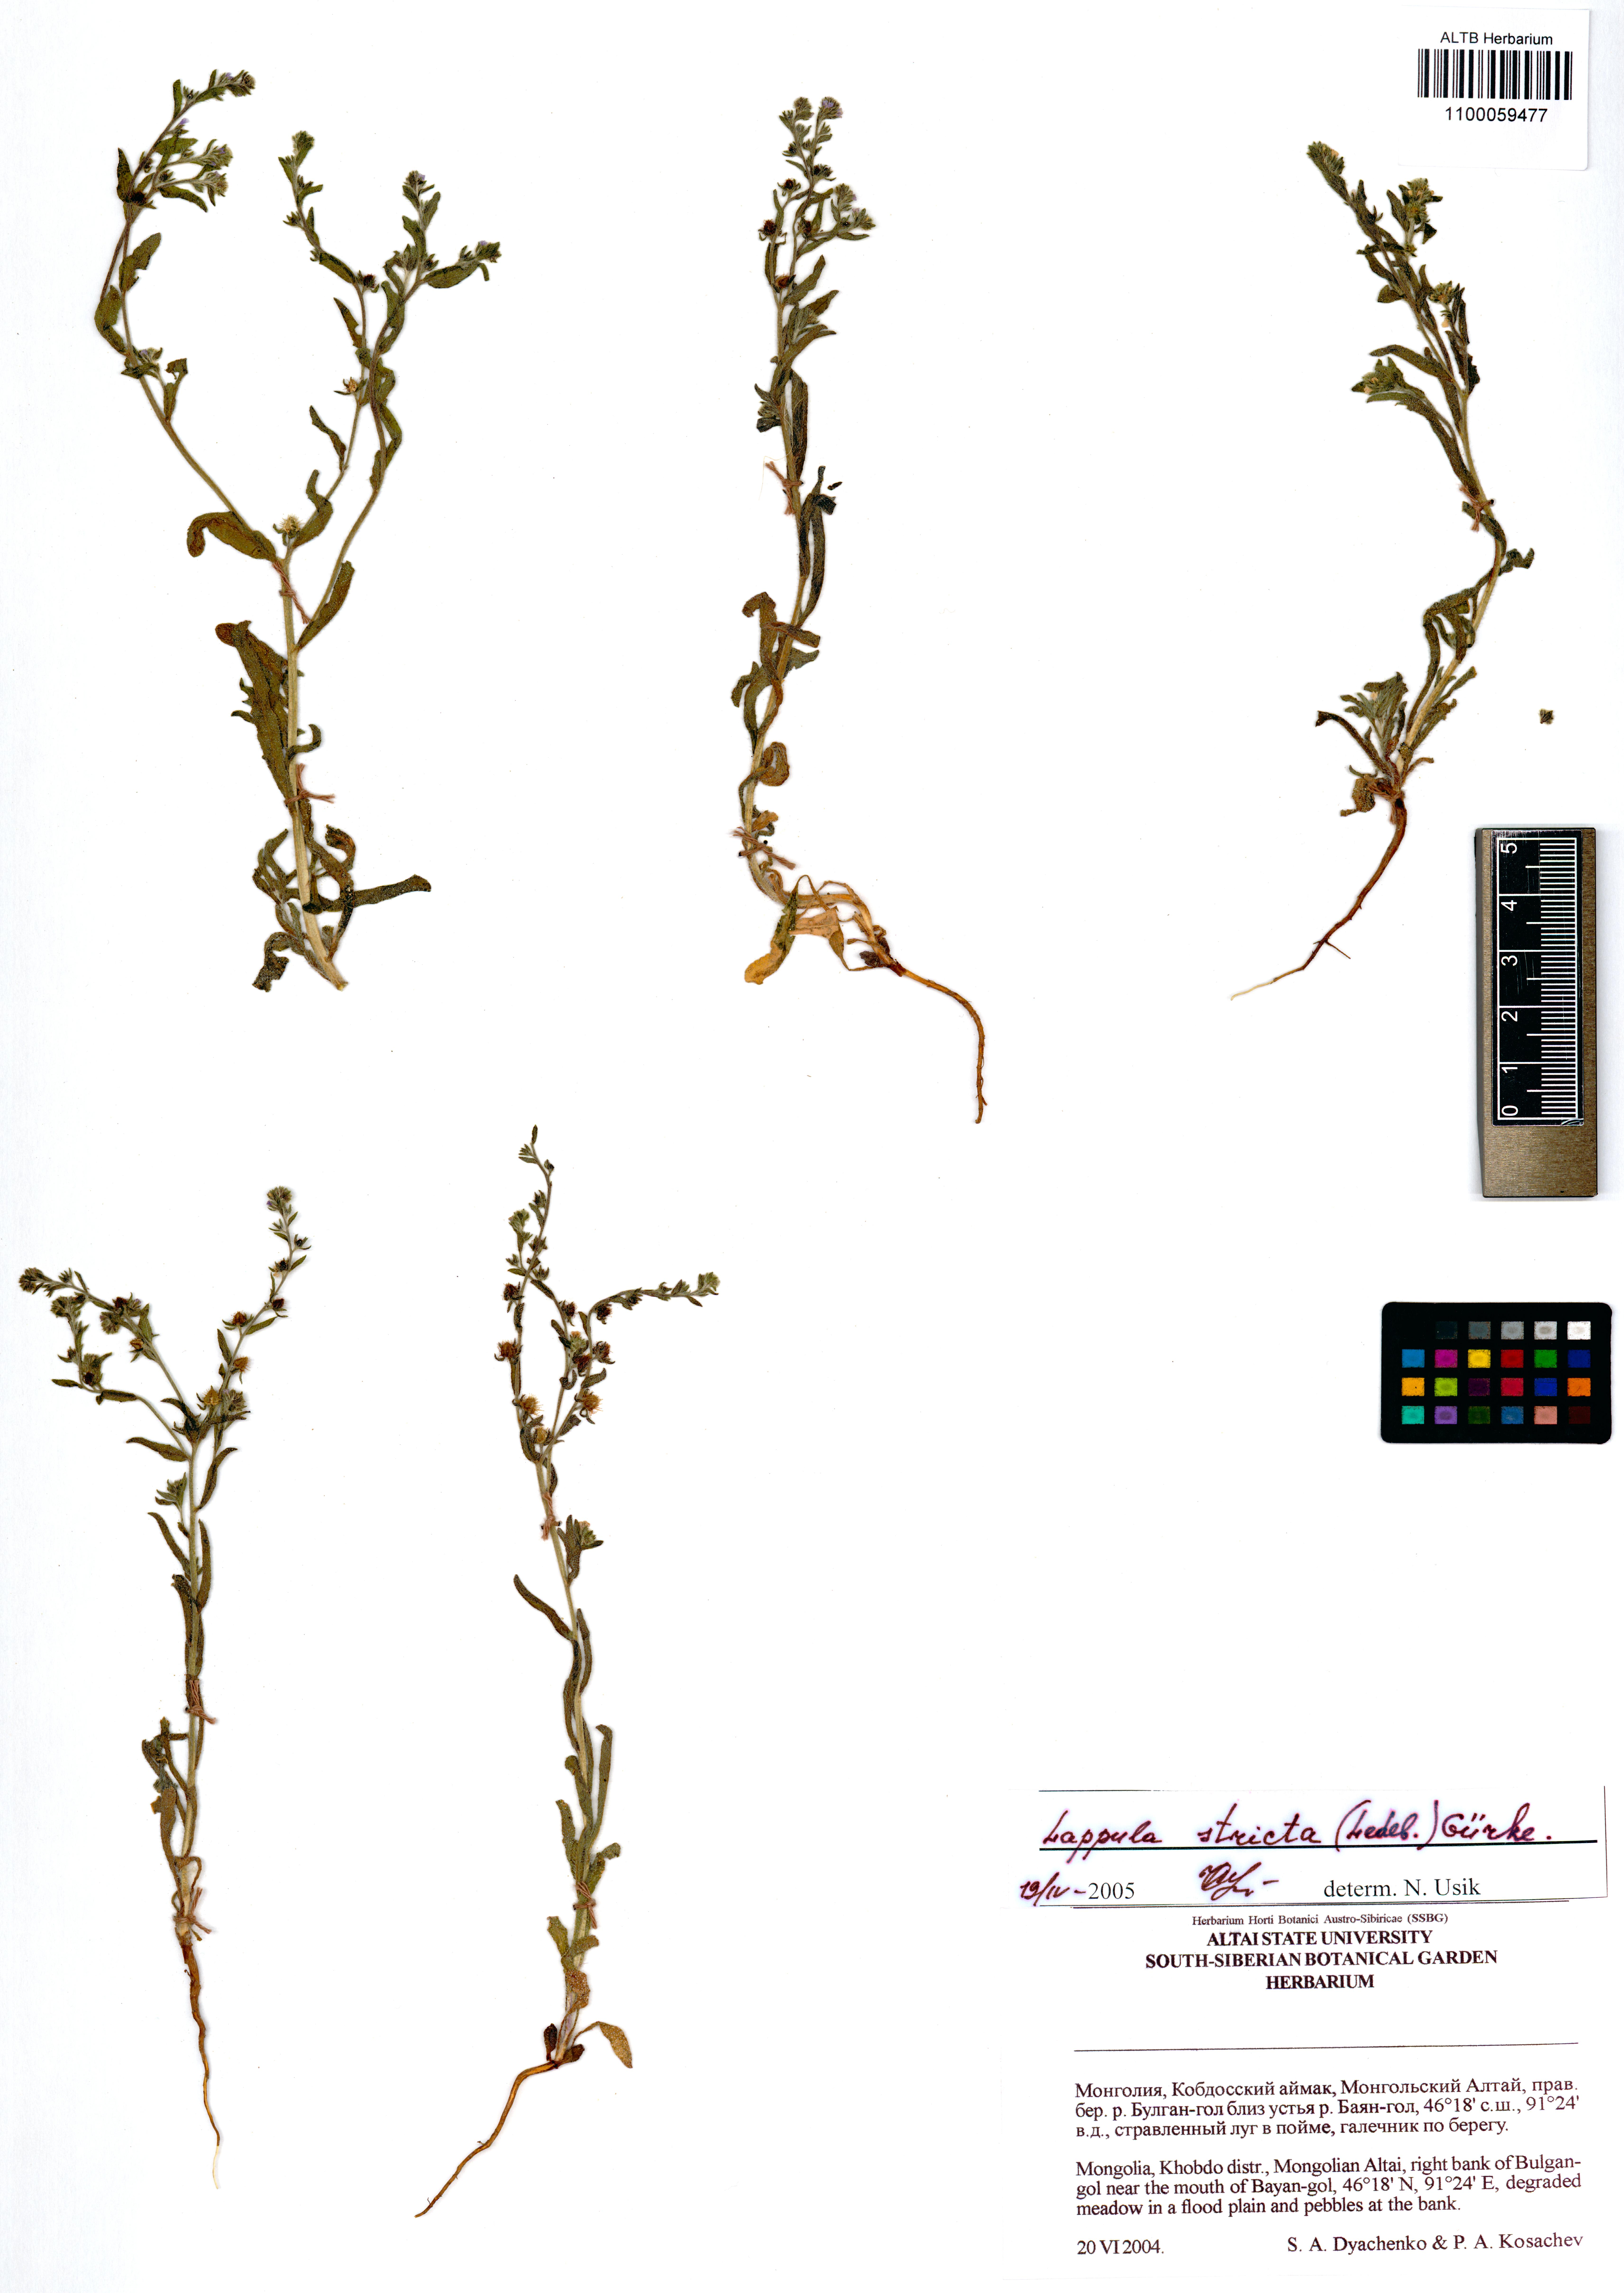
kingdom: Plantae
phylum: Tracheophyta
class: Magnoliopsida
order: Boraginales
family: Boraginaceae
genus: Lappula
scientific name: Lappula stricta
